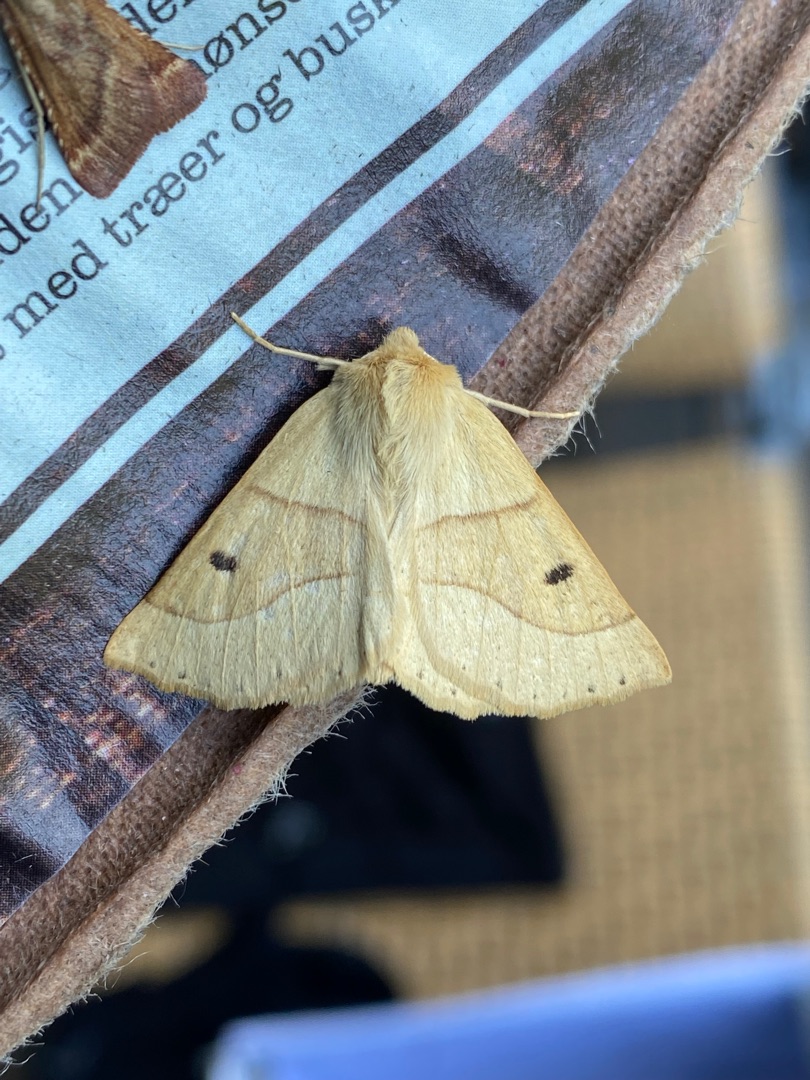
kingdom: Animalia
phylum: Arthropoda
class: Insecta
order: Lepidoptera
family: Geometridae
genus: Crocallis
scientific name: Crocallis elinguaria
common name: Okkergul rovmåler
